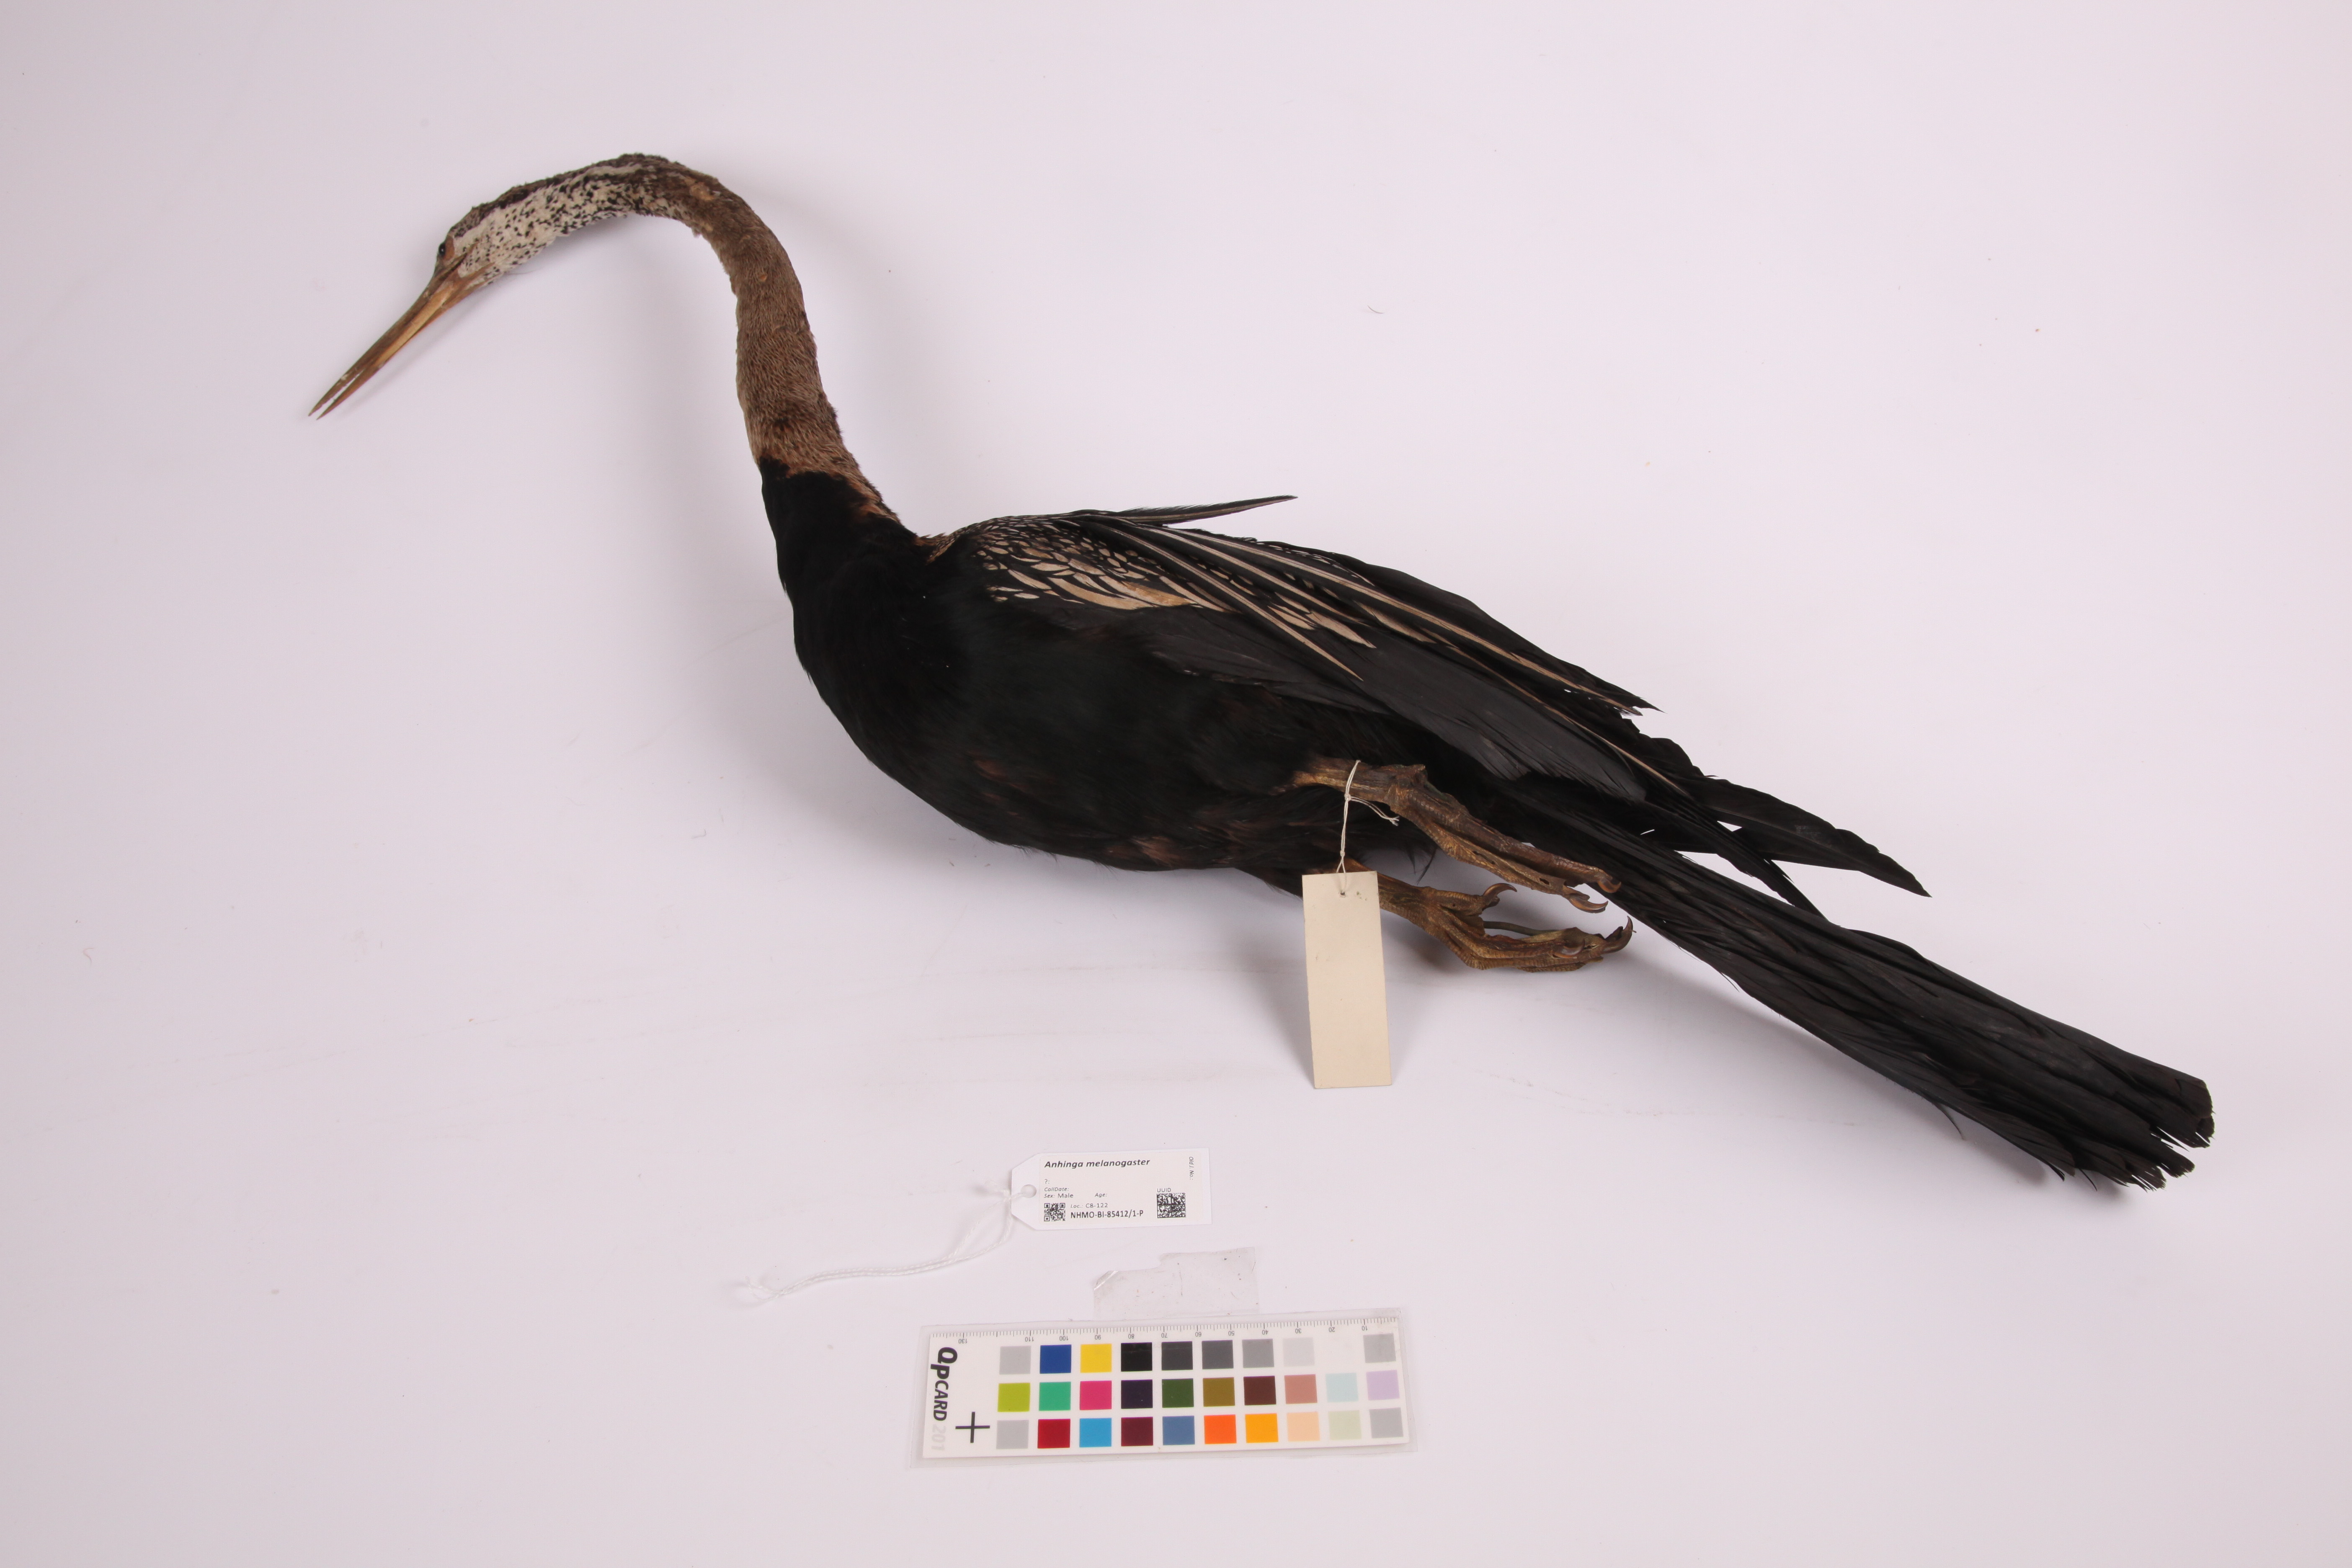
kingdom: Animalia
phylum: Chordata
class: Aves
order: Suliformes
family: Anhingidae
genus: Anhinga
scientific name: Anhinga melanogaster
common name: Oriental darter
